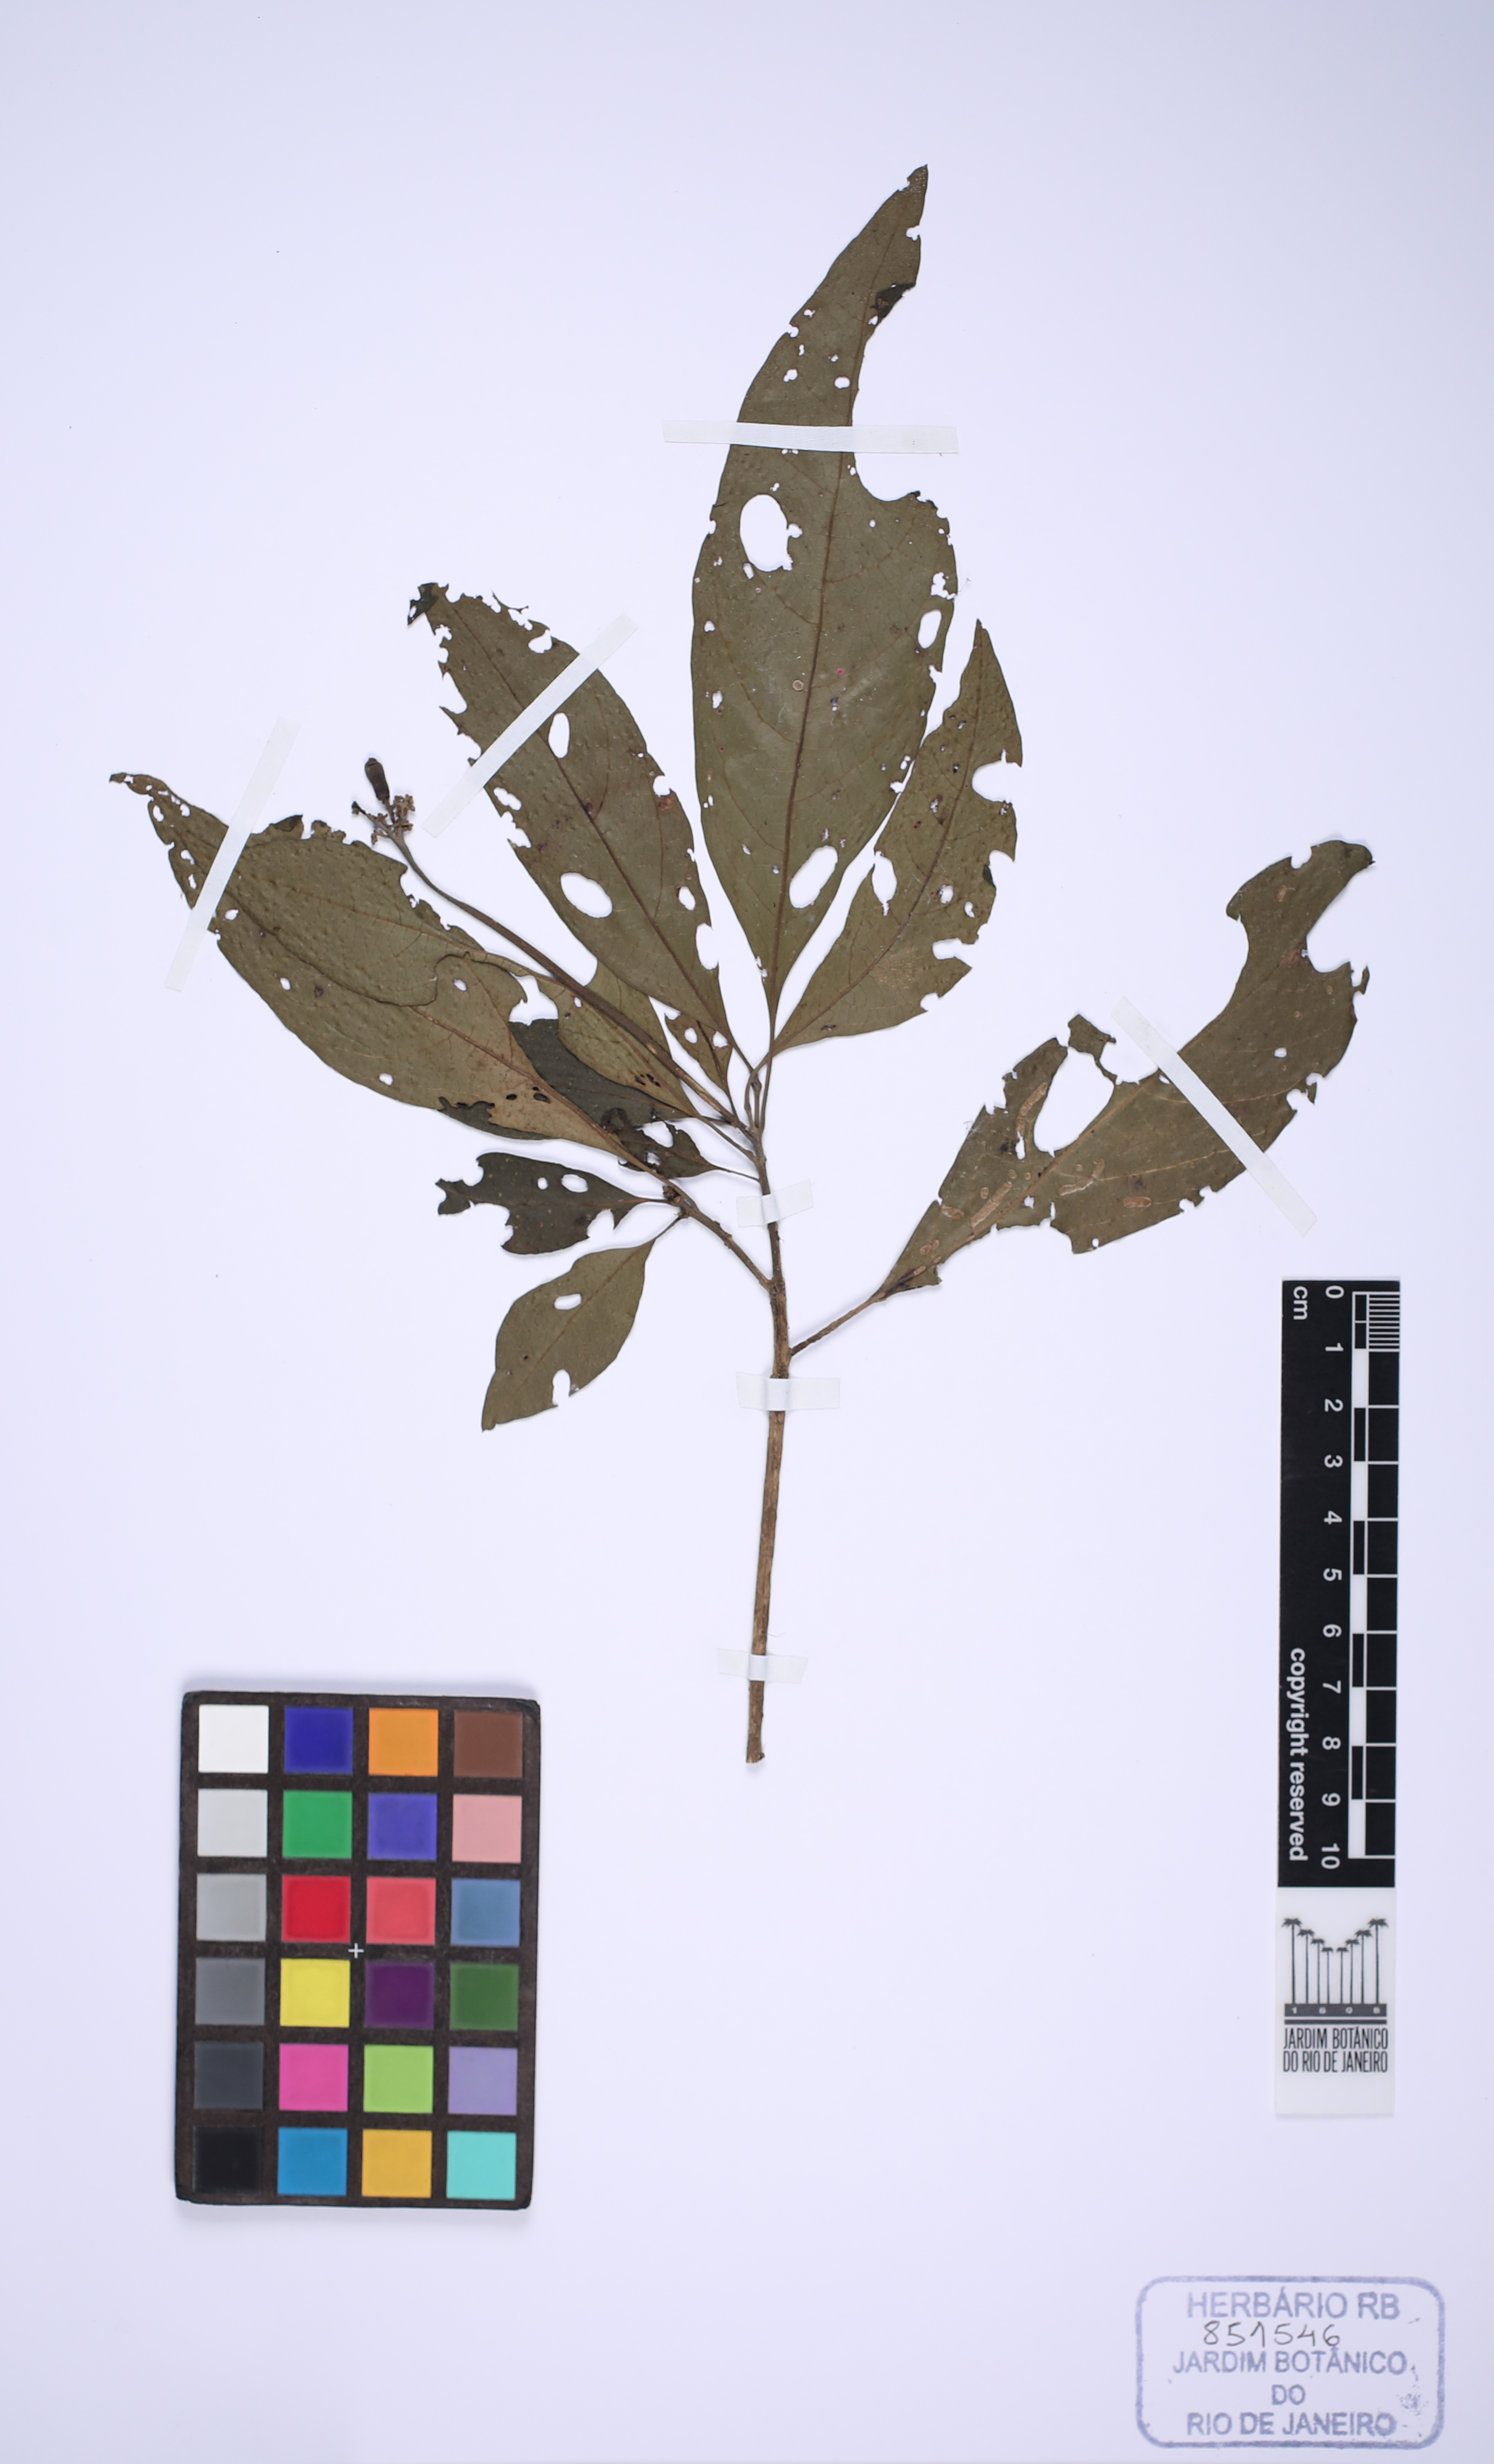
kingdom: Plantae
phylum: Tracheophyta
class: Magnoliopsida
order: Boraginales
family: Cordiaceae
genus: Cordia
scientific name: Cordia taguahuyensis
